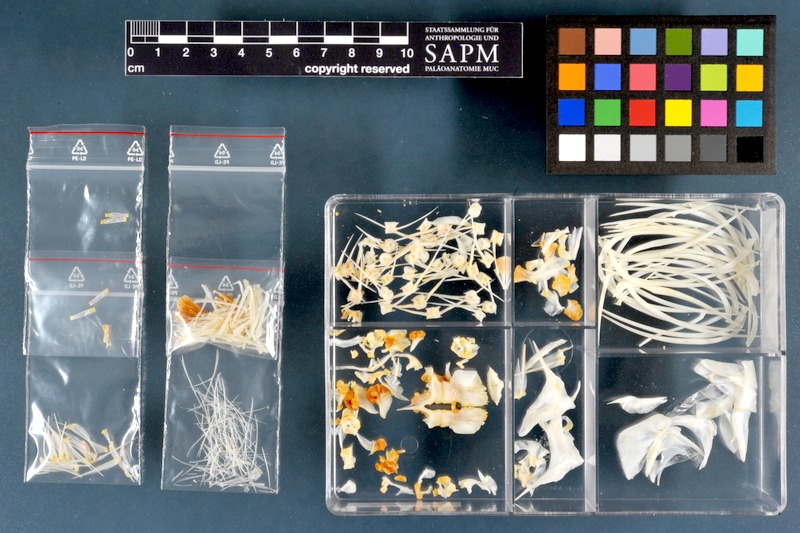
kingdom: Animalia
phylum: Chordata
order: Characiformes
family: Distichodontidae
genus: Distichodus
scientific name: Distichodus
